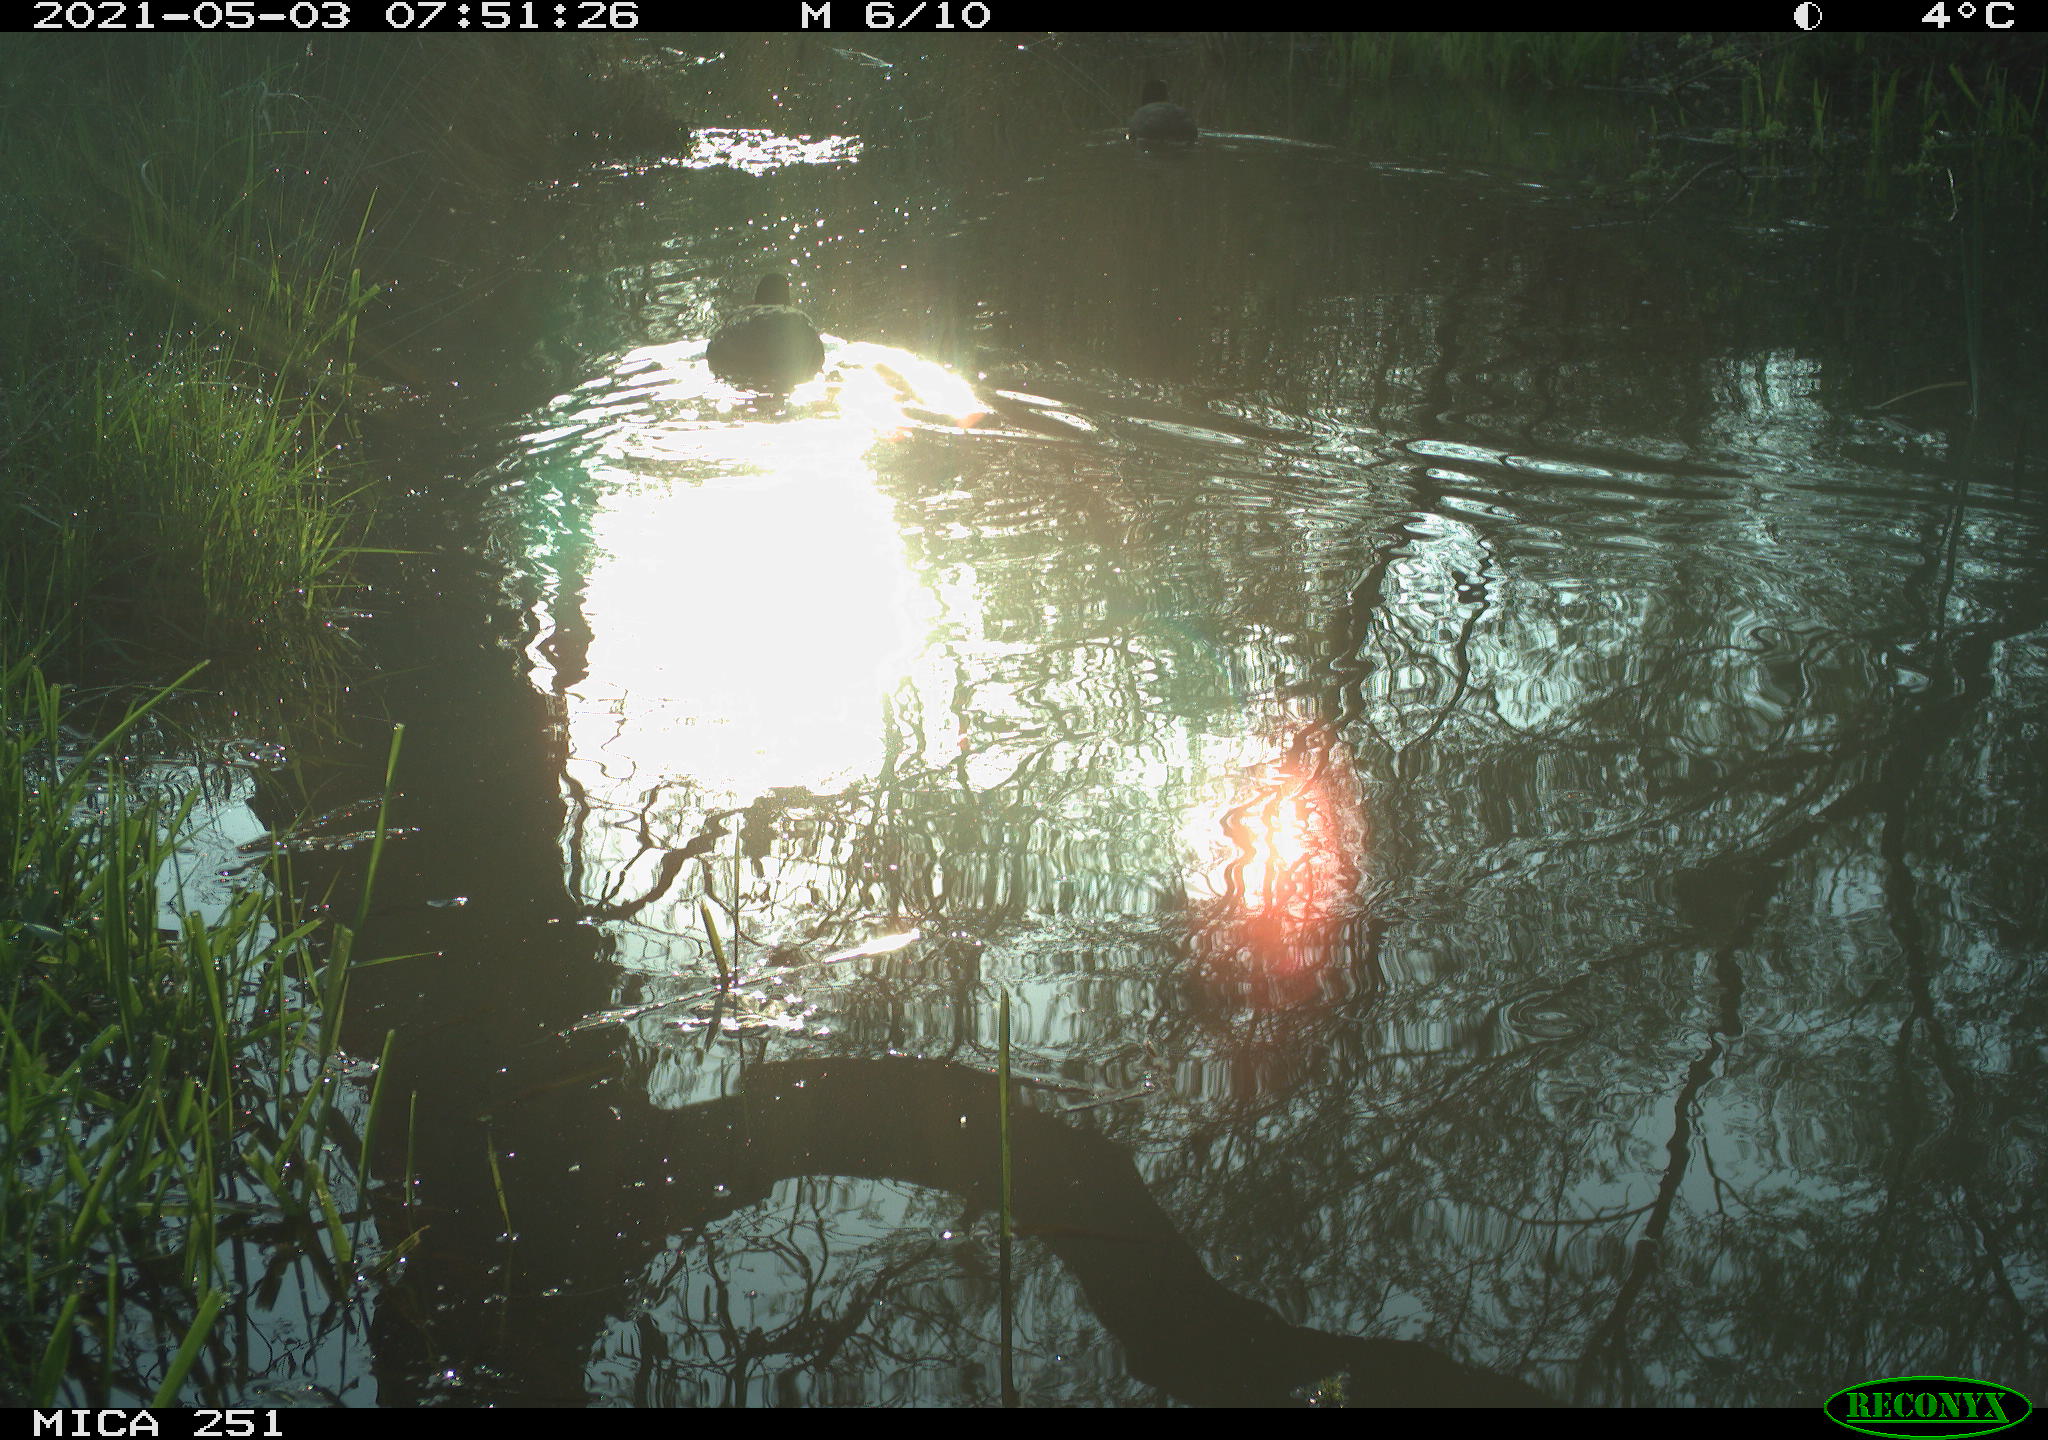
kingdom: Animalia
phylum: Chordata
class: Aves
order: Gruiformes
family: Rallidae
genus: Fulica
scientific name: Fulica atra
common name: Eurasian coot
